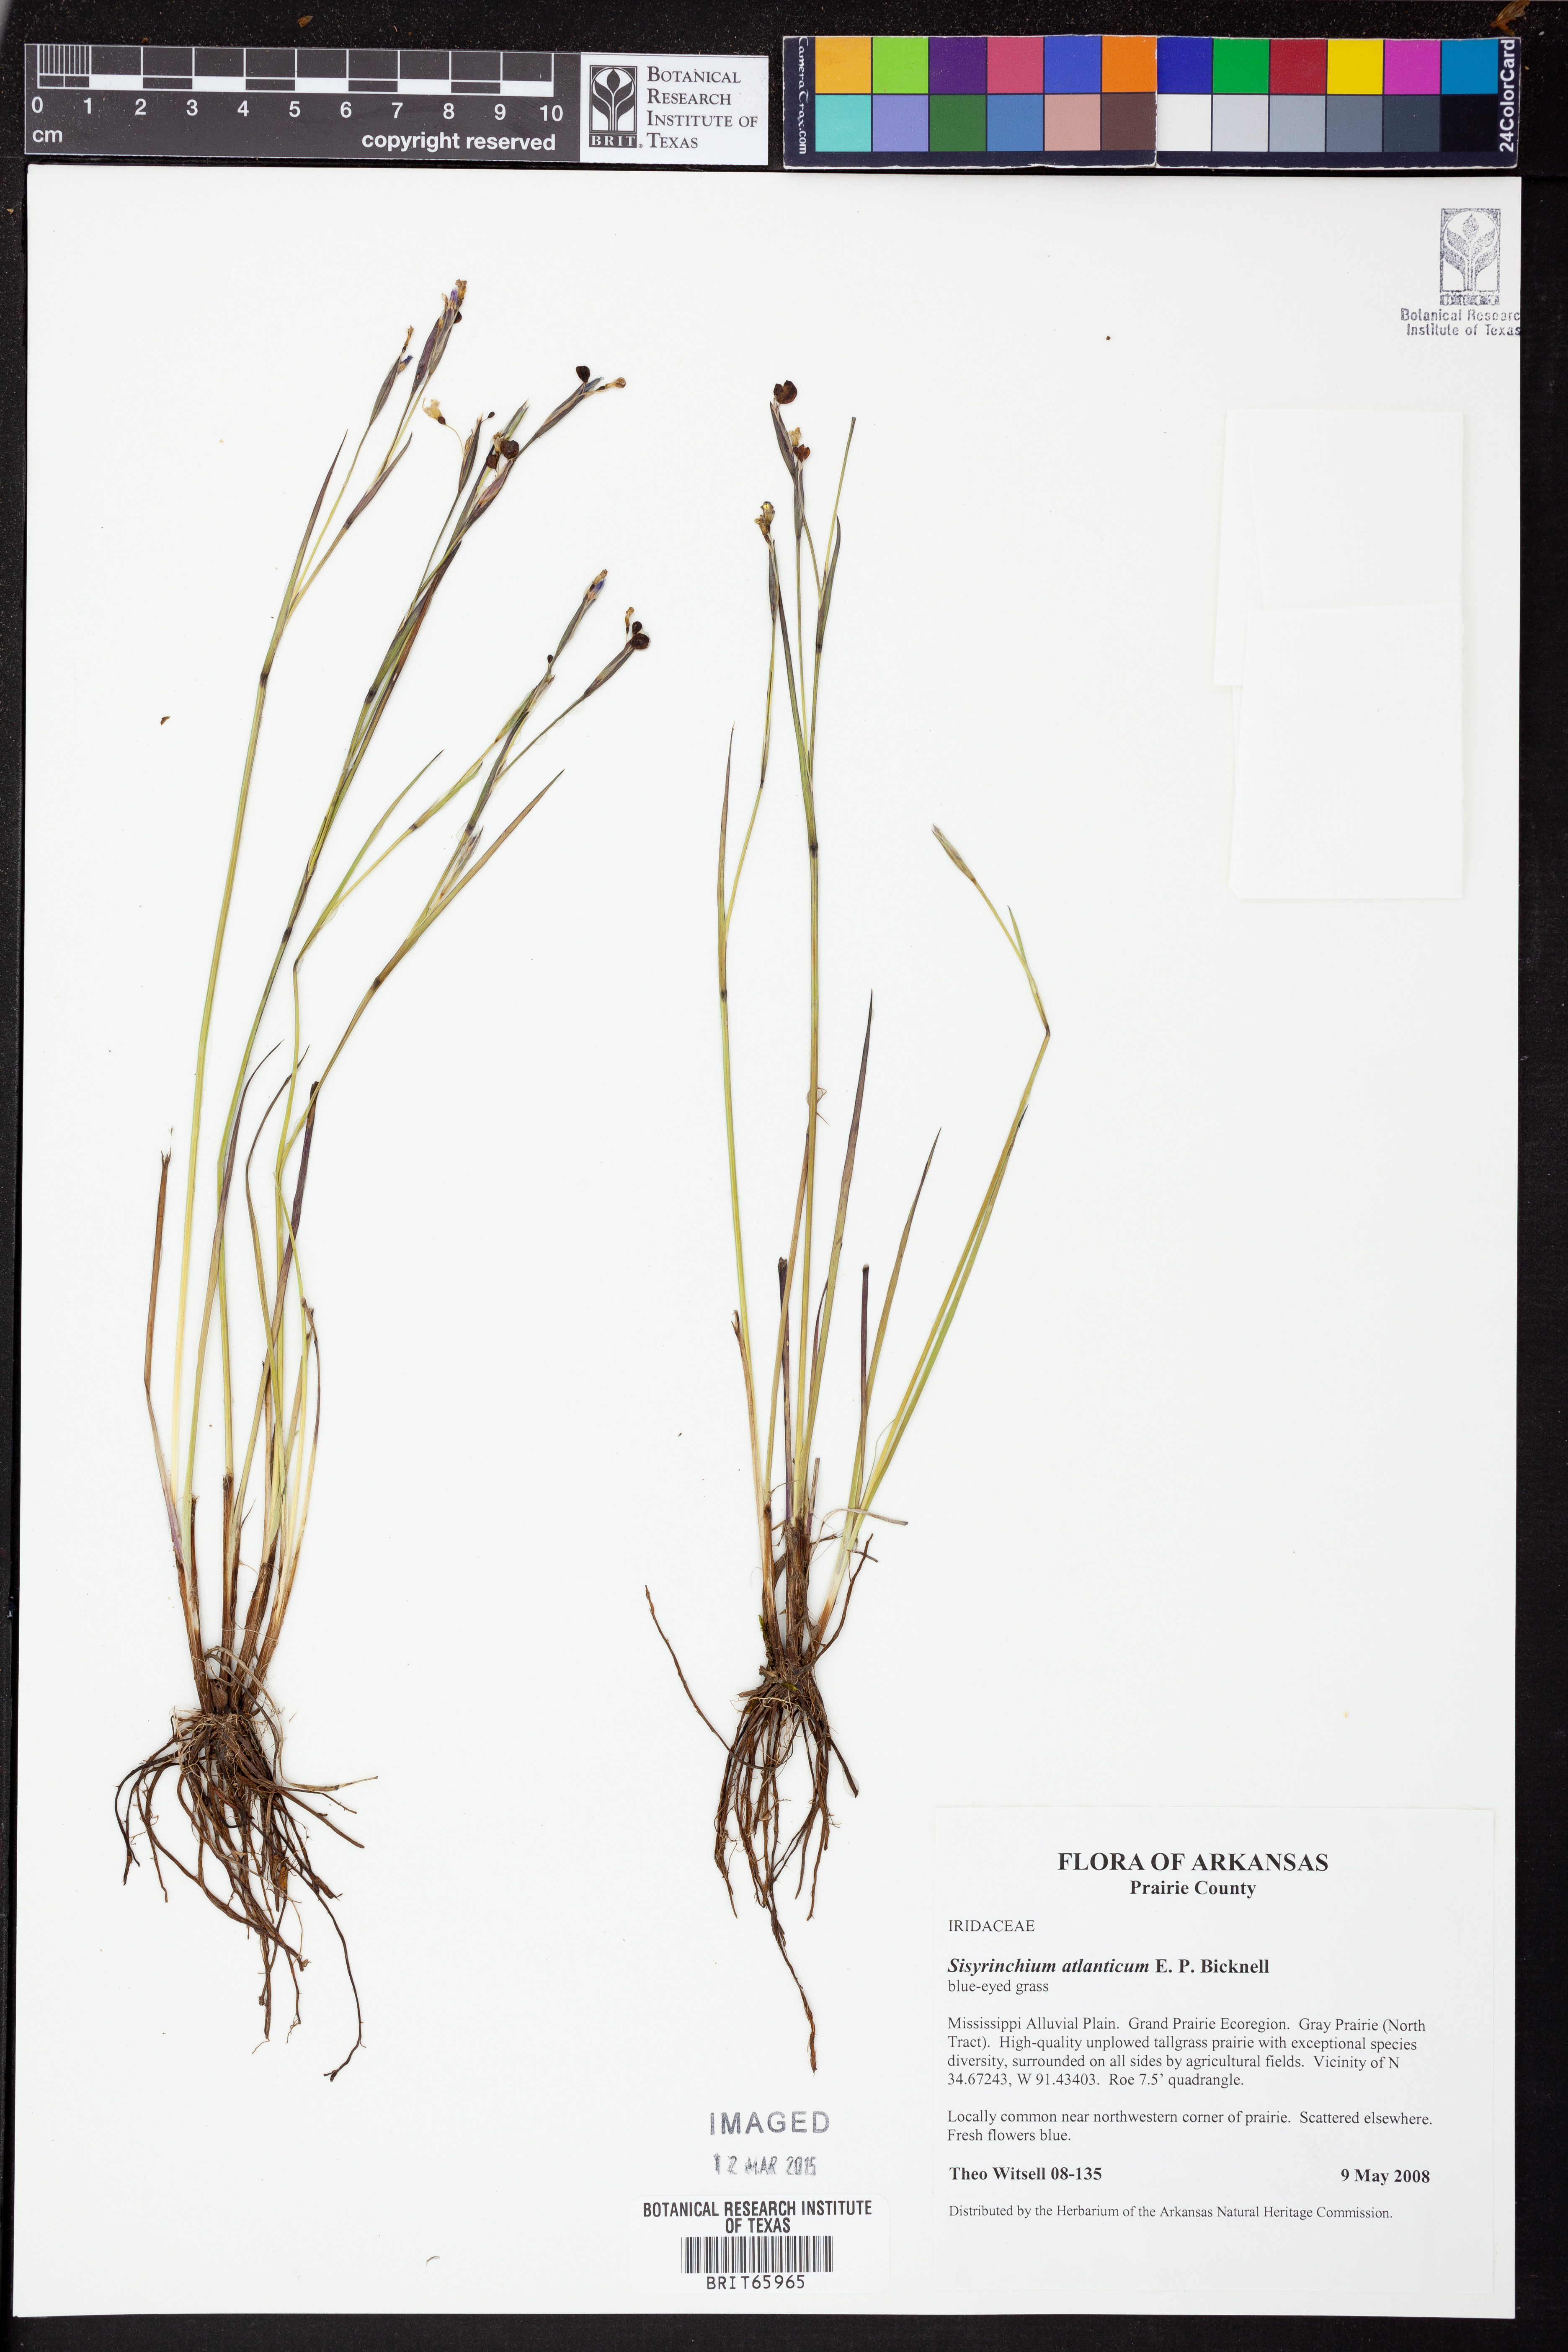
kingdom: Plantae
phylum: Tracheophyta
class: Liliopsida
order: Asparagales
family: Iridaceae
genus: Sisyrinchium
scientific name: Sisyrinchium atlanticum
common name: Eastern blue-eyed-grass
